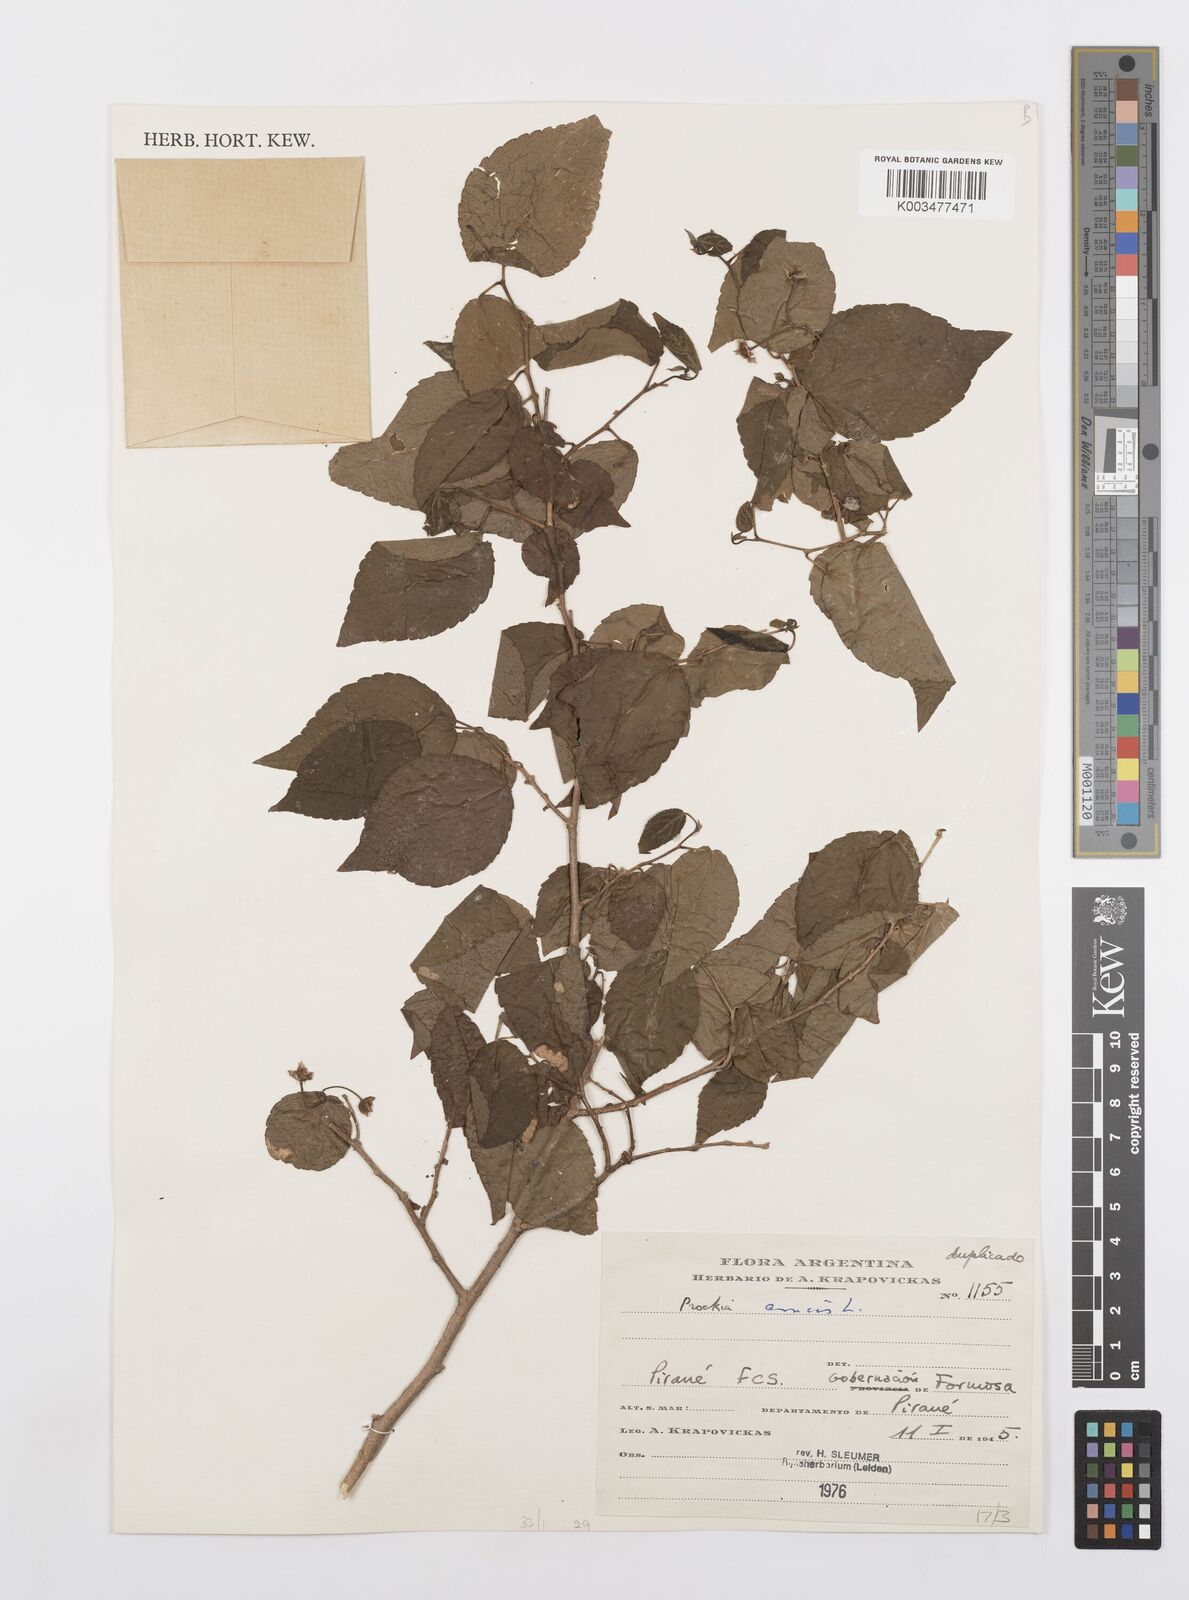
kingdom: Plantae
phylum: Tracheophyta
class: Magnoliopsida
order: Malpighiales
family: Salicaceae
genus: Prockia
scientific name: Prockia crucis
